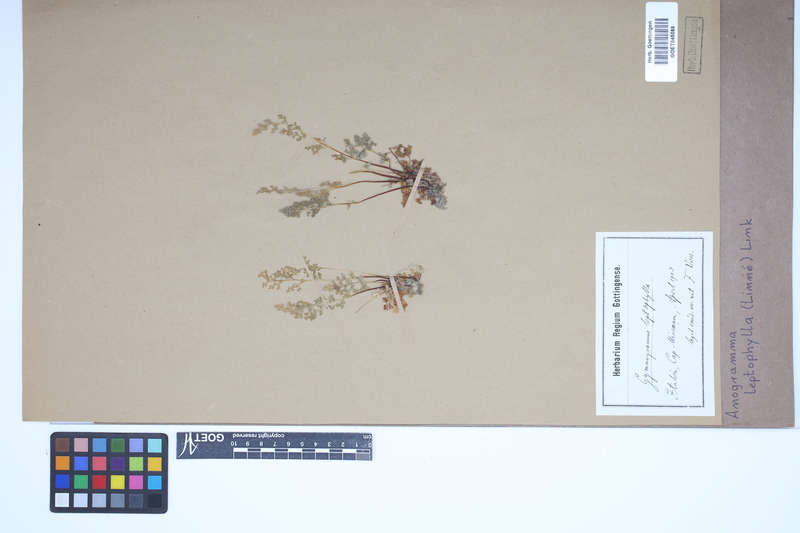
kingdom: Plantae
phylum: Tracheophyta
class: Polypodiopsida
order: Polypodiales
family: Pteridaceae
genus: Anogramma
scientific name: Anogramma leptophylla
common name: Jersey fern
